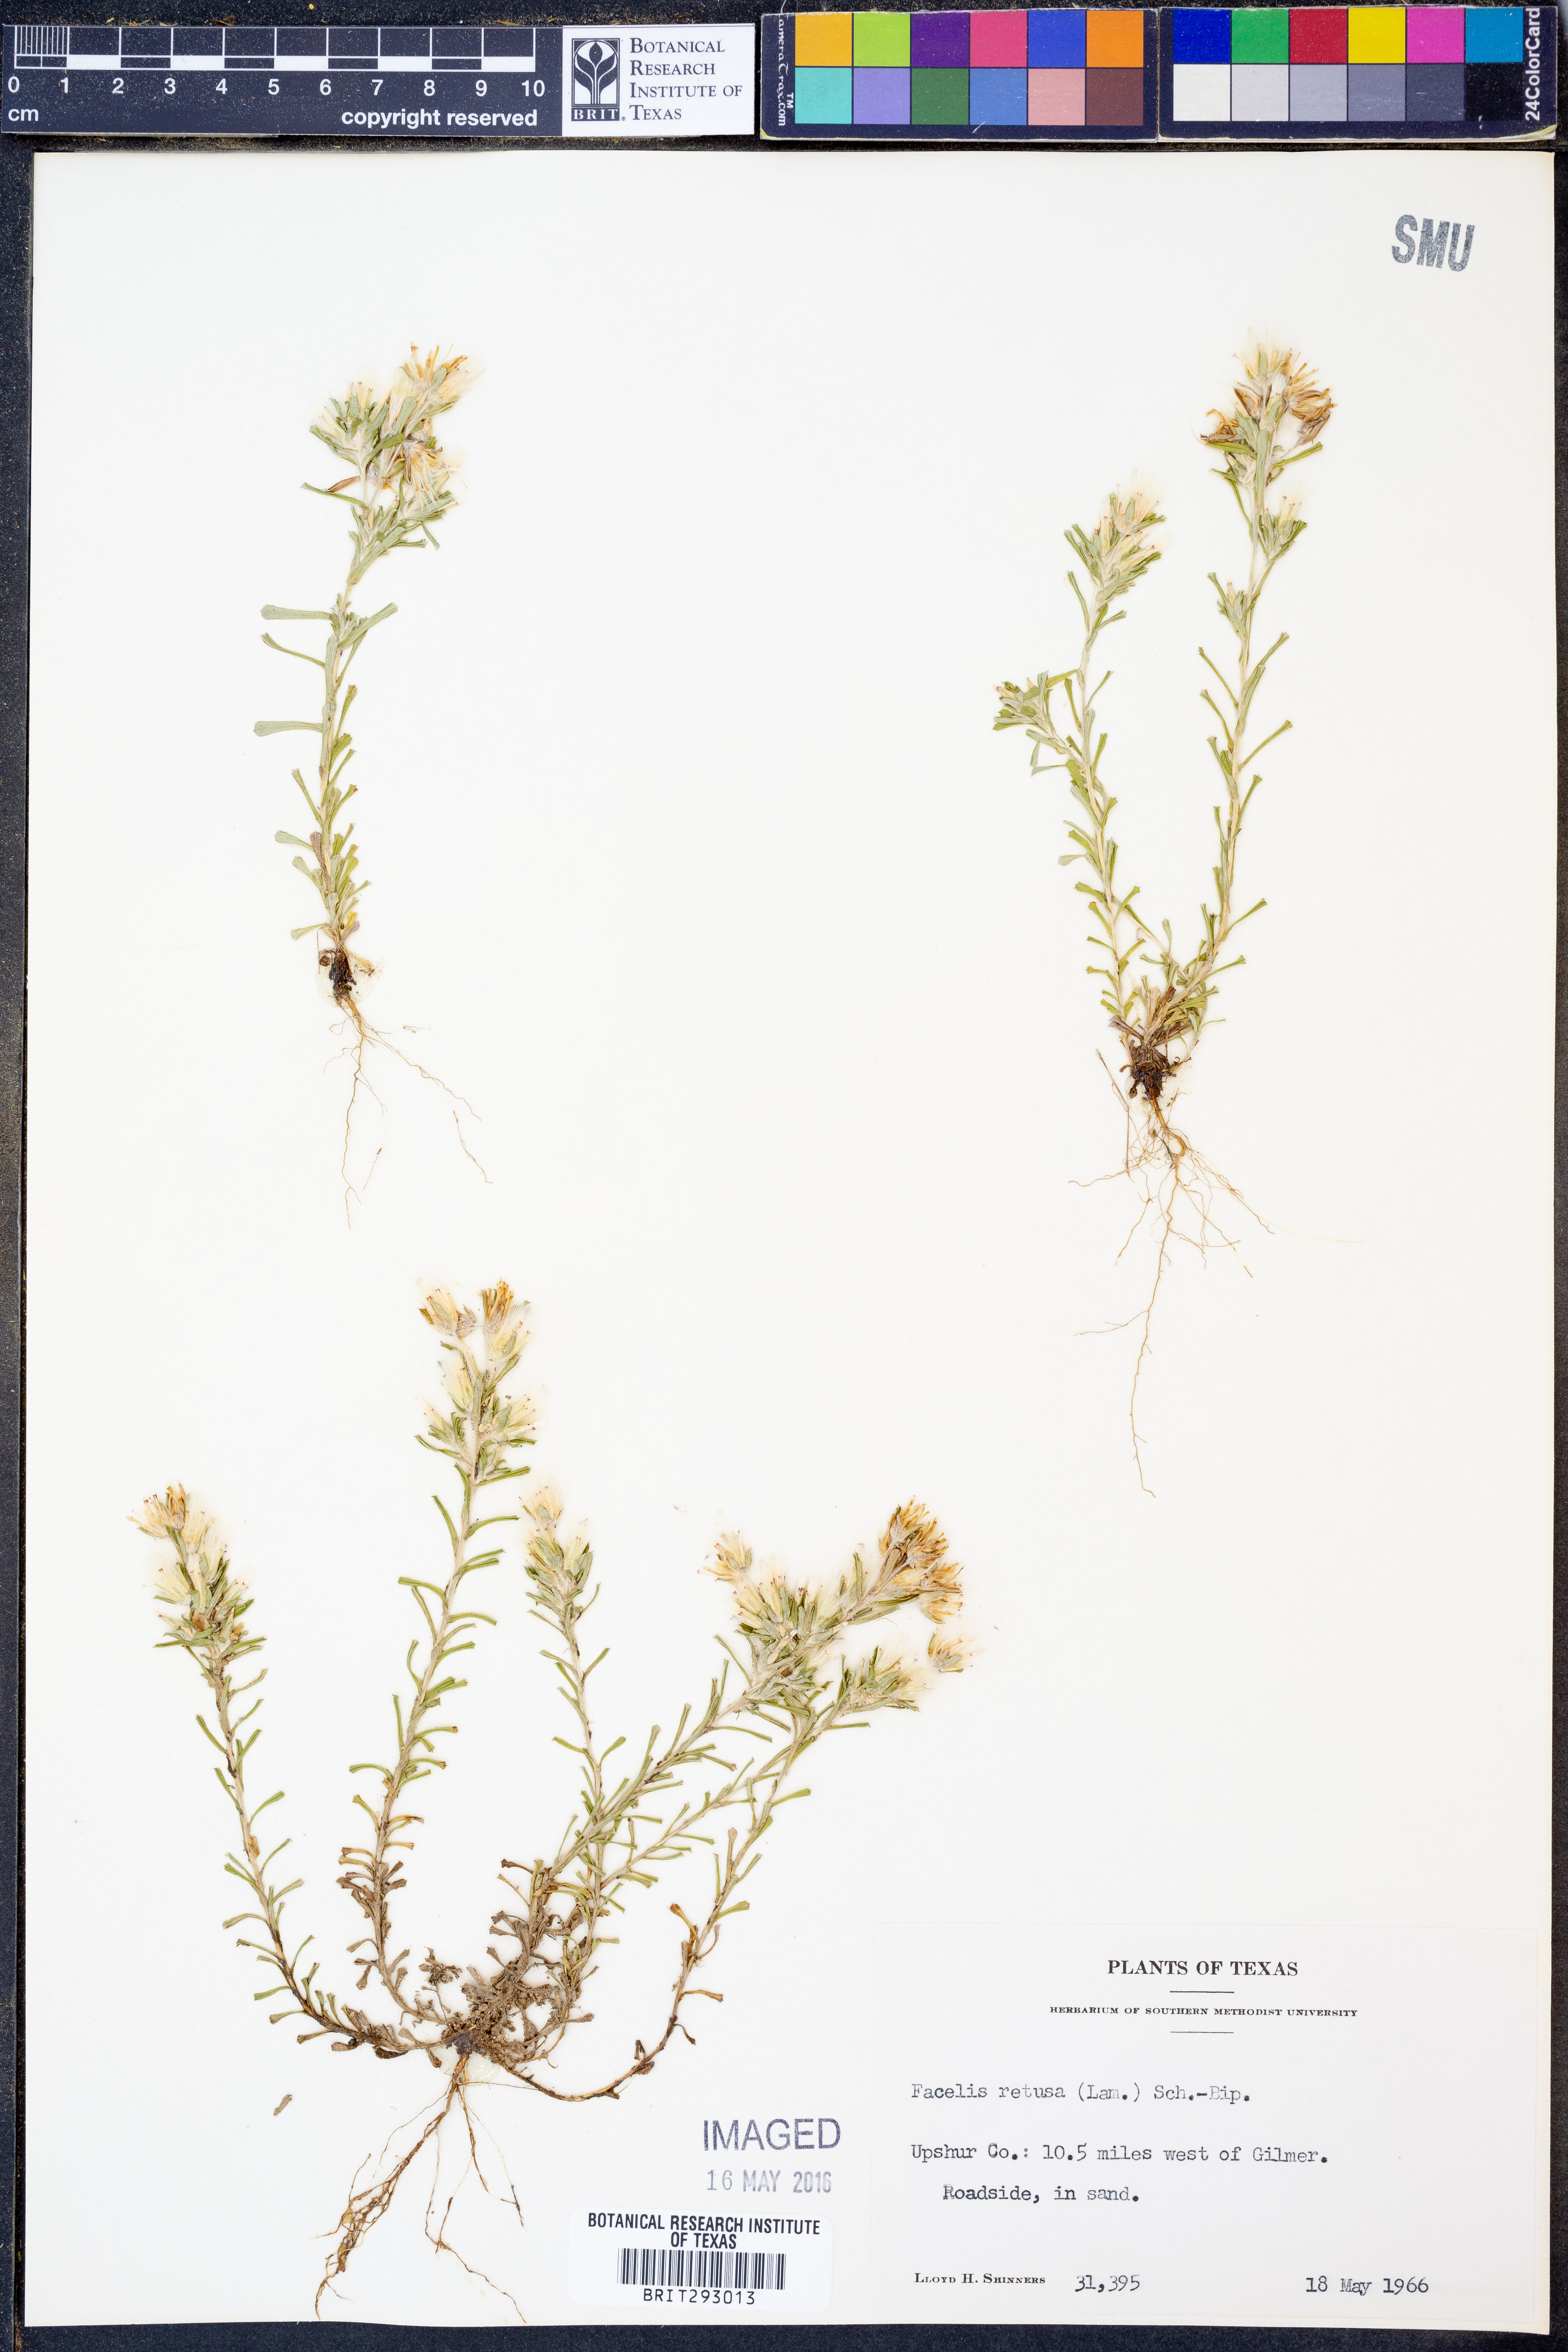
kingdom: Plantae
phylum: Tracheophyta
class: Magnoliopsida
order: Asterales
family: Asteraceae
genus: Facelis
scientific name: Facelis retusa
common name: Annual trampweed
